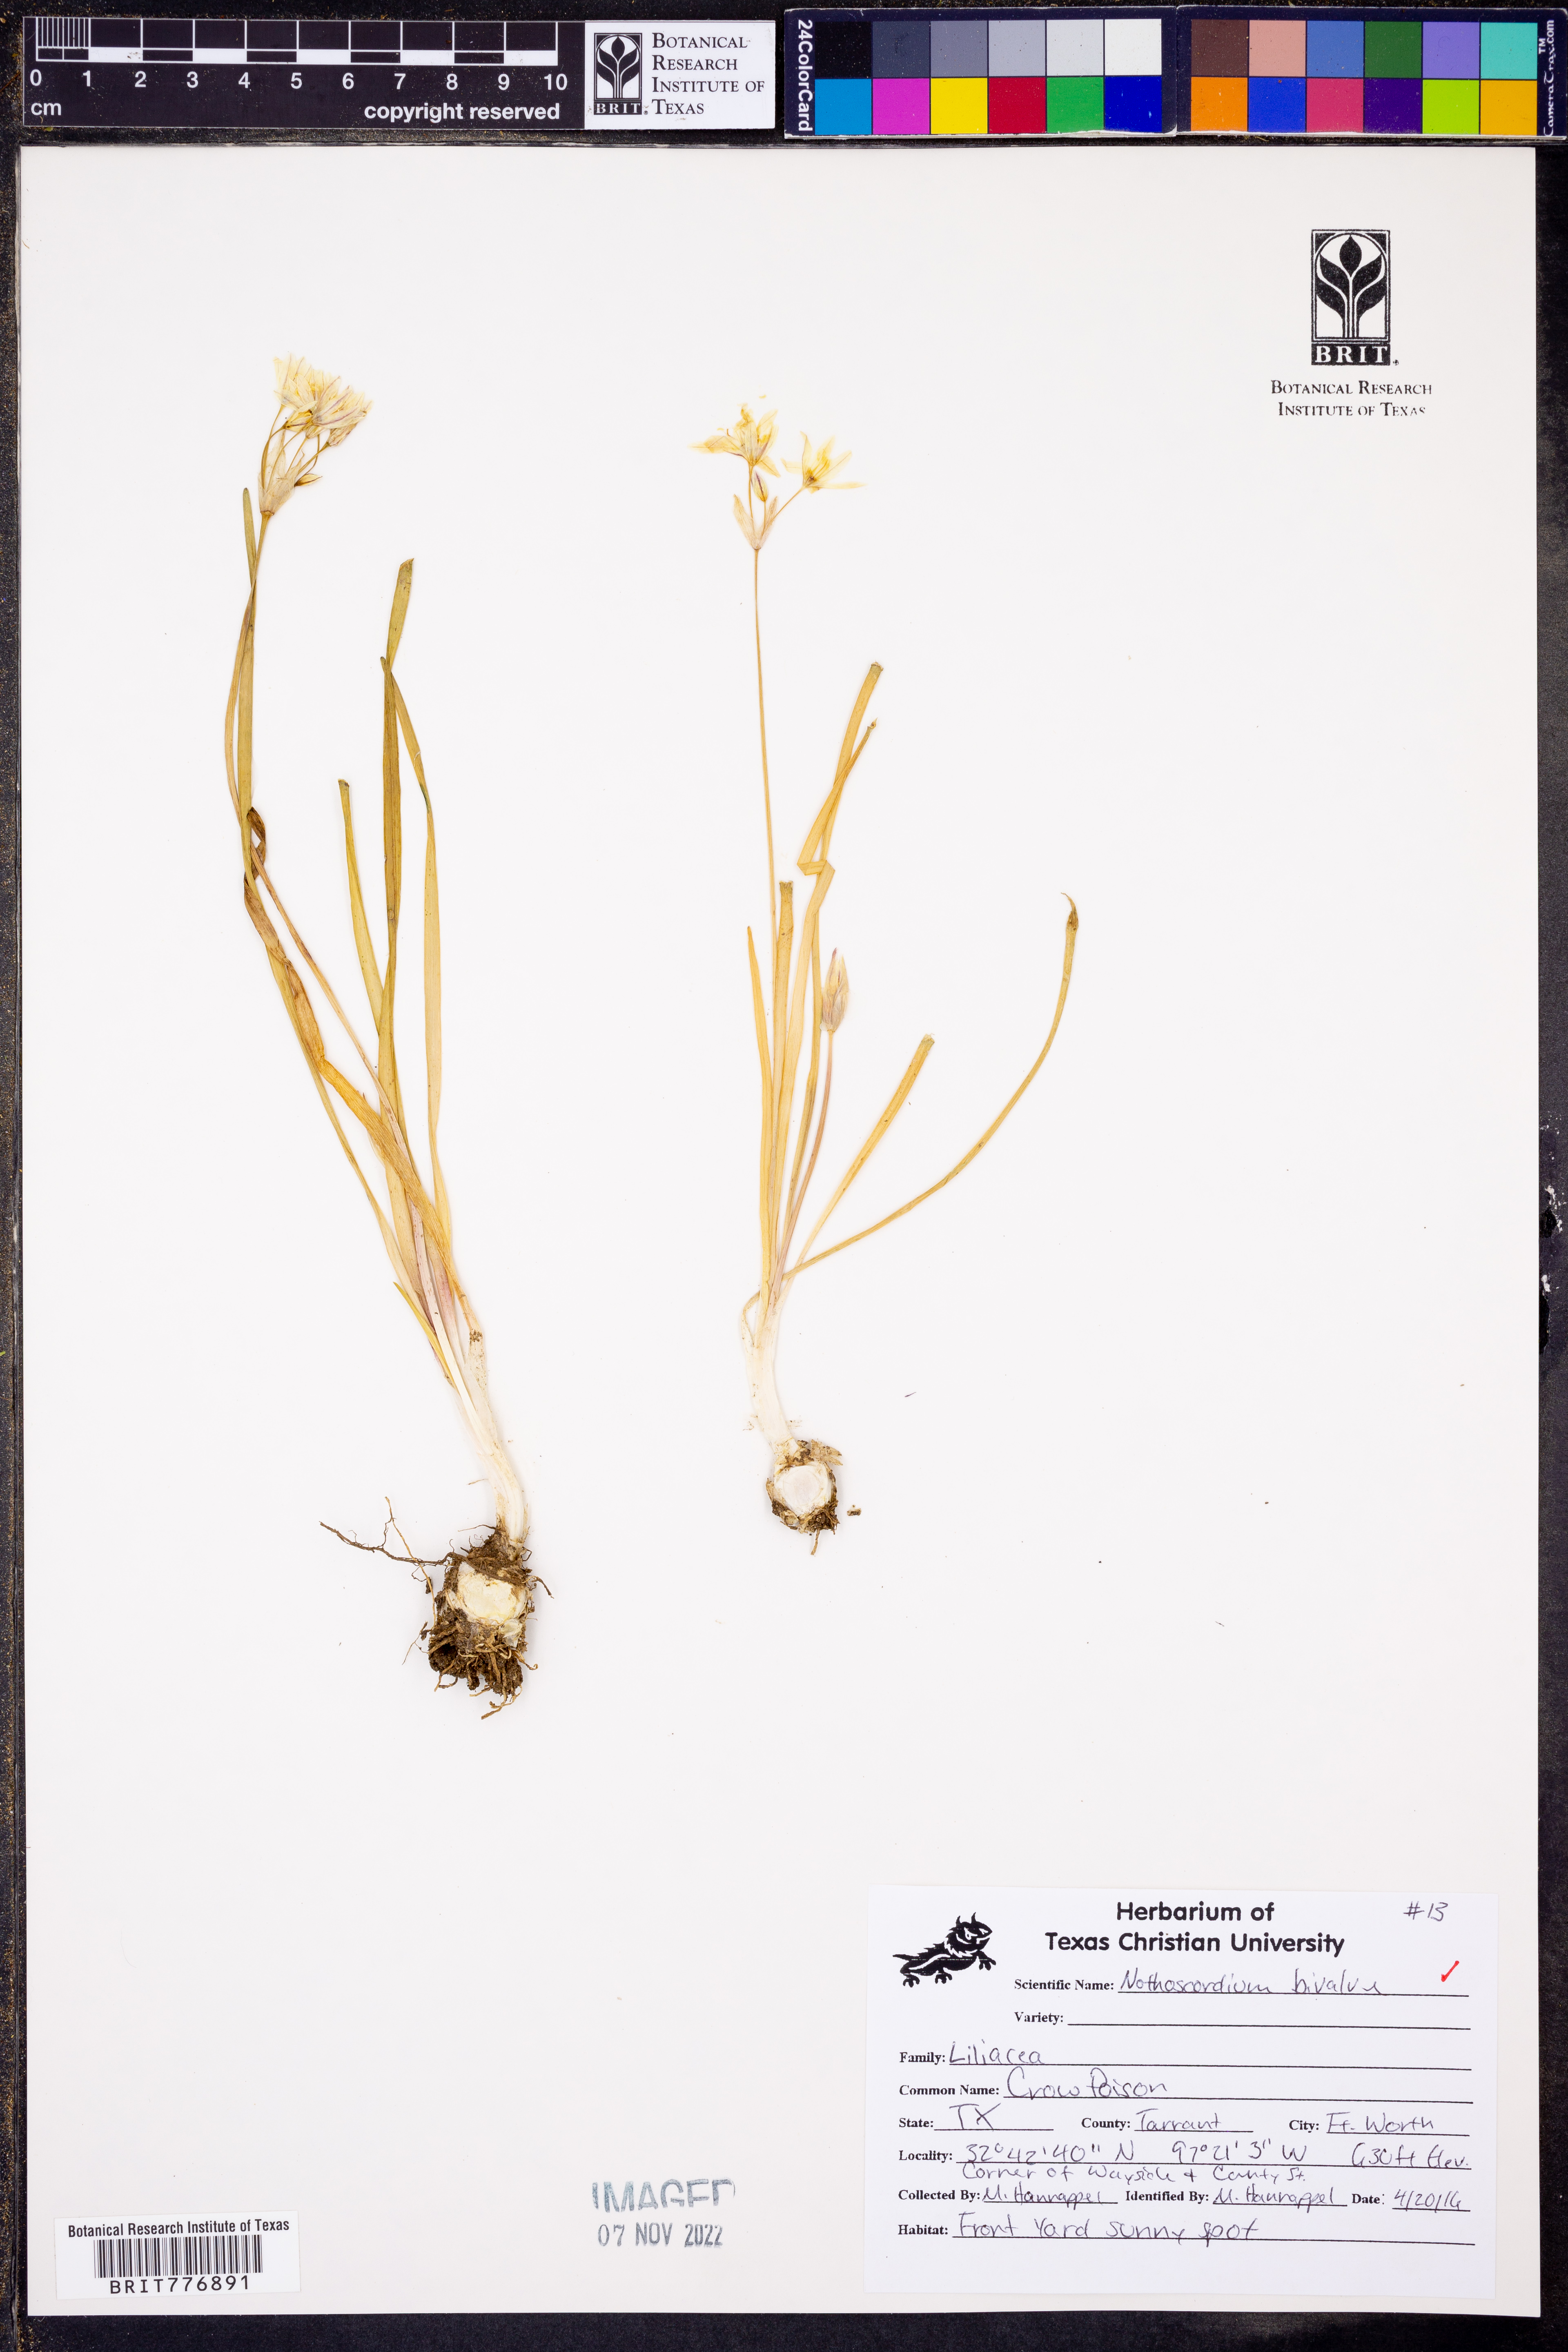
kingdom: Plantae
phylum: Tracheophyta
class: Liliopsida
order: Asparagales
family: Amaryllidaceae
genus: Nothoscordum
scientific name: Nothoscordum bivalve
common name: Crow-poison
